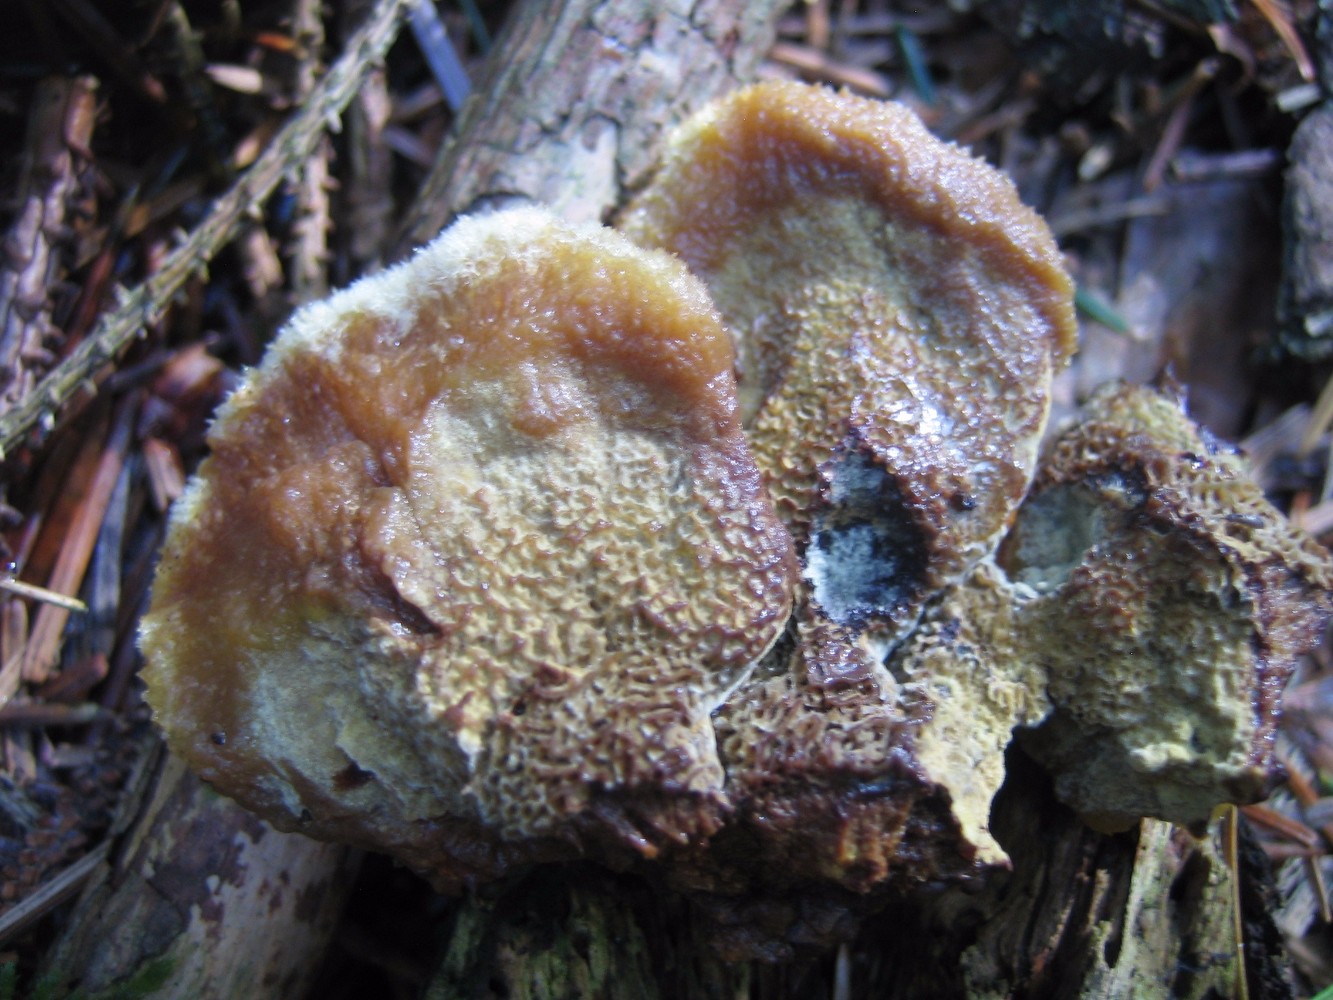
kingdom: Fungi
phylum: Basidiomycota
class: Agaricomycetes
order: Polyporales
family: Laetiporaceae
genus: Phaeolus
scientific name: Phaeolus schweinitzii
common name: brunporesvamp
